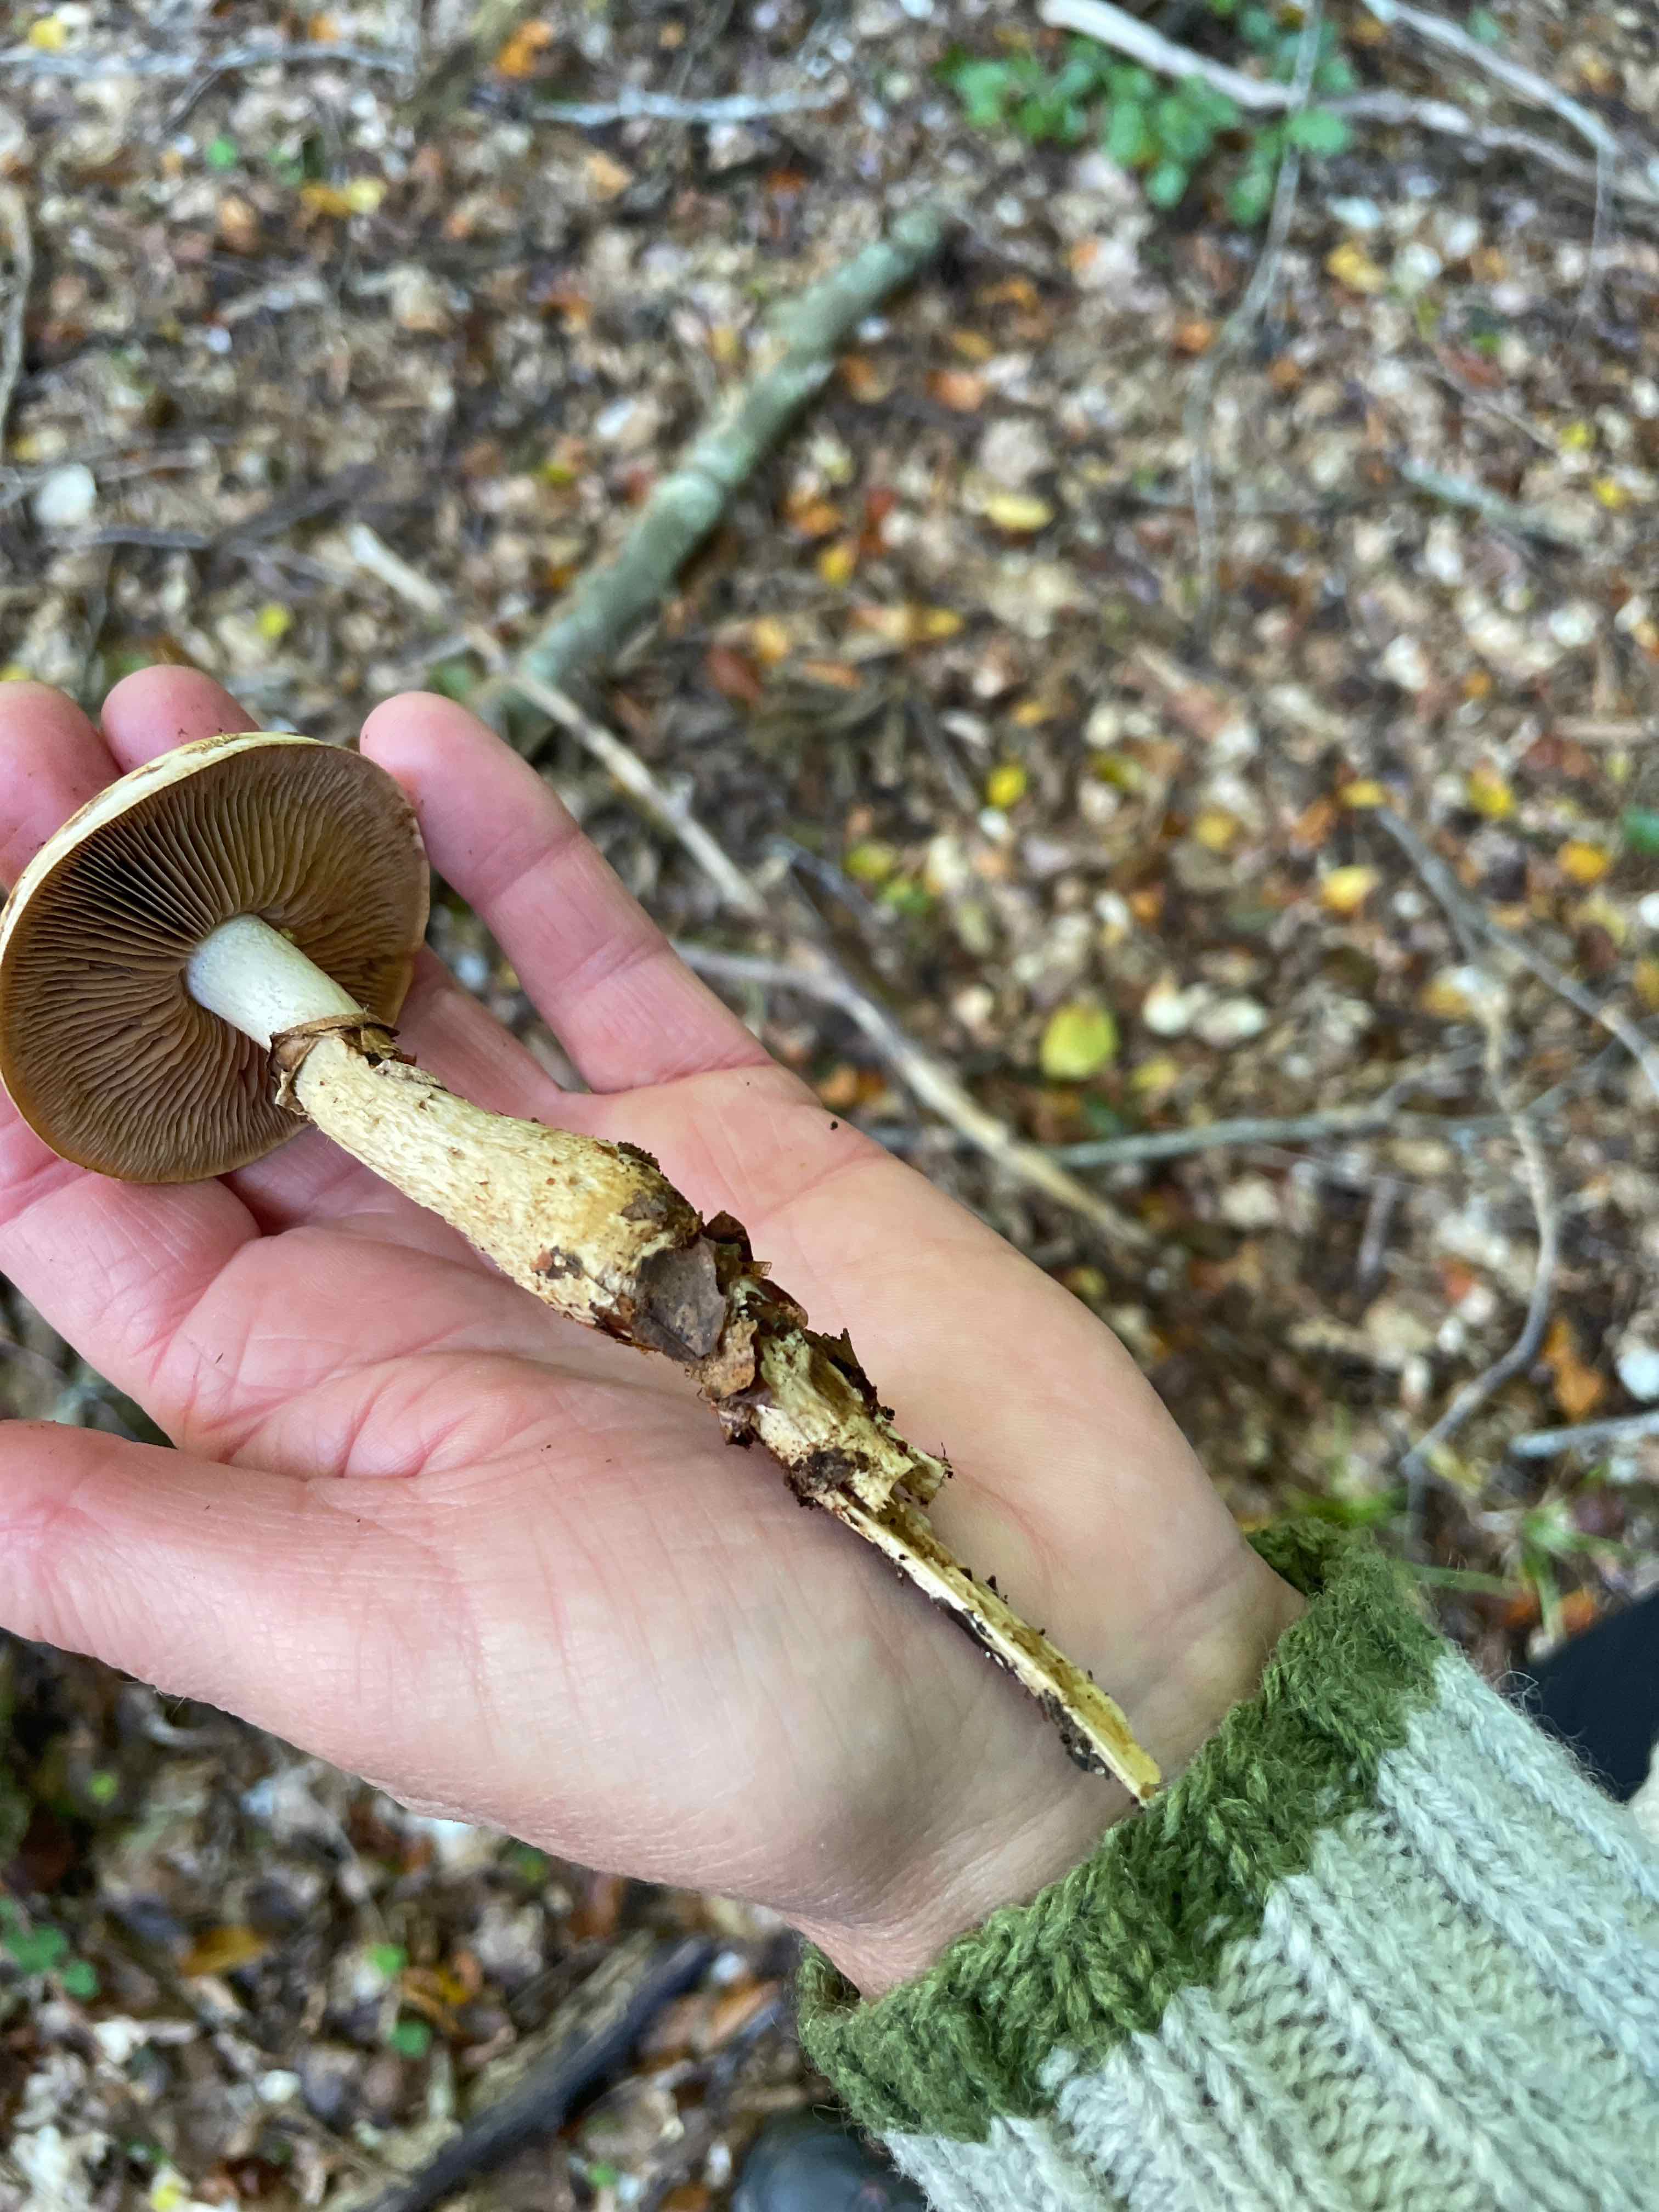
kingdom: Fungi
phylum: Basidiomycota
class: Agaricomycetes
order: Agaricales
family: Hymenogastraceae
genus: Hebeloma
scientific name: Hebeloma radicosum
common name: pælerods-tåreblad
